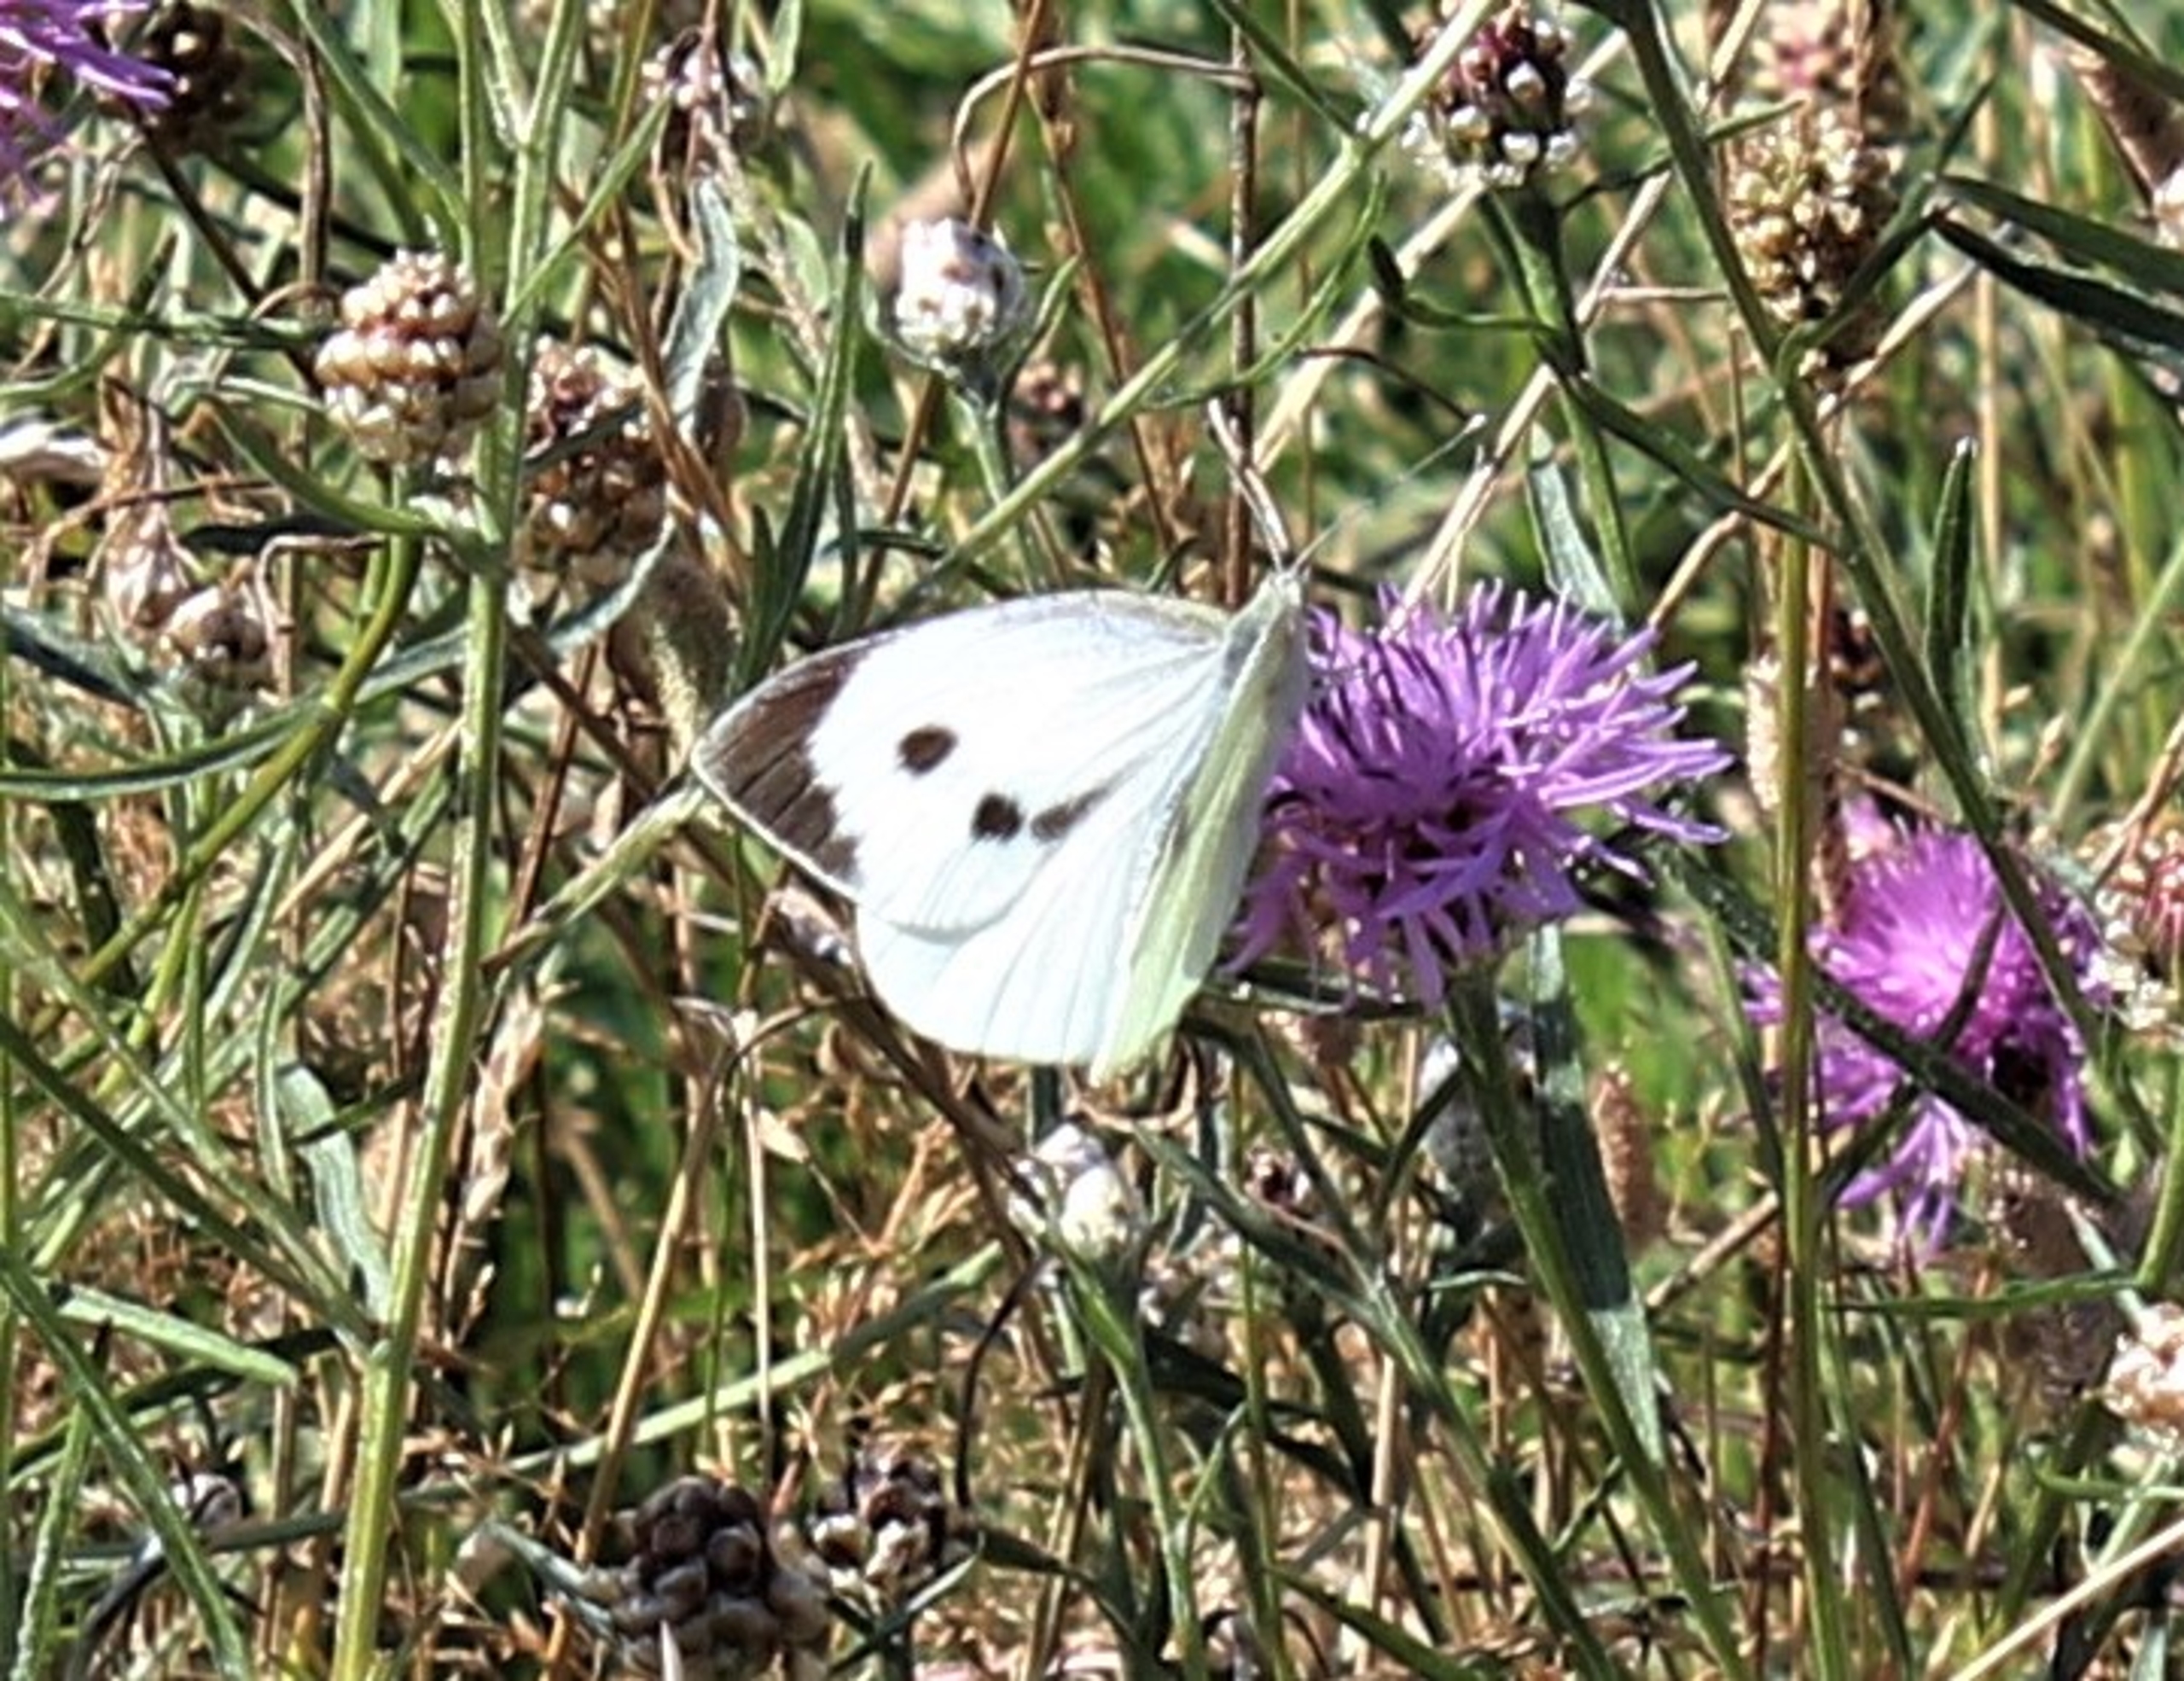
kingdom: Animalia
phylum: Arthropoda
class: Insecta
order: Lepidoptera
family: Pieridae
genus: Pieris
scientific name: Pieris brassicae
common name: Stor kålsommerfugl
